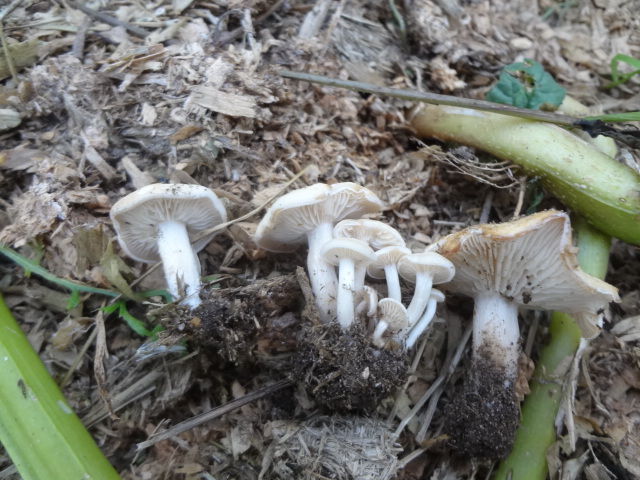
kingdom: Fungi
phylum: Basidiomycota
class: Agaricomycetes
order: Agaricales
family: Tricholomataceae
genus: Clitocybe
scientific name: Clitocybe agrestis
